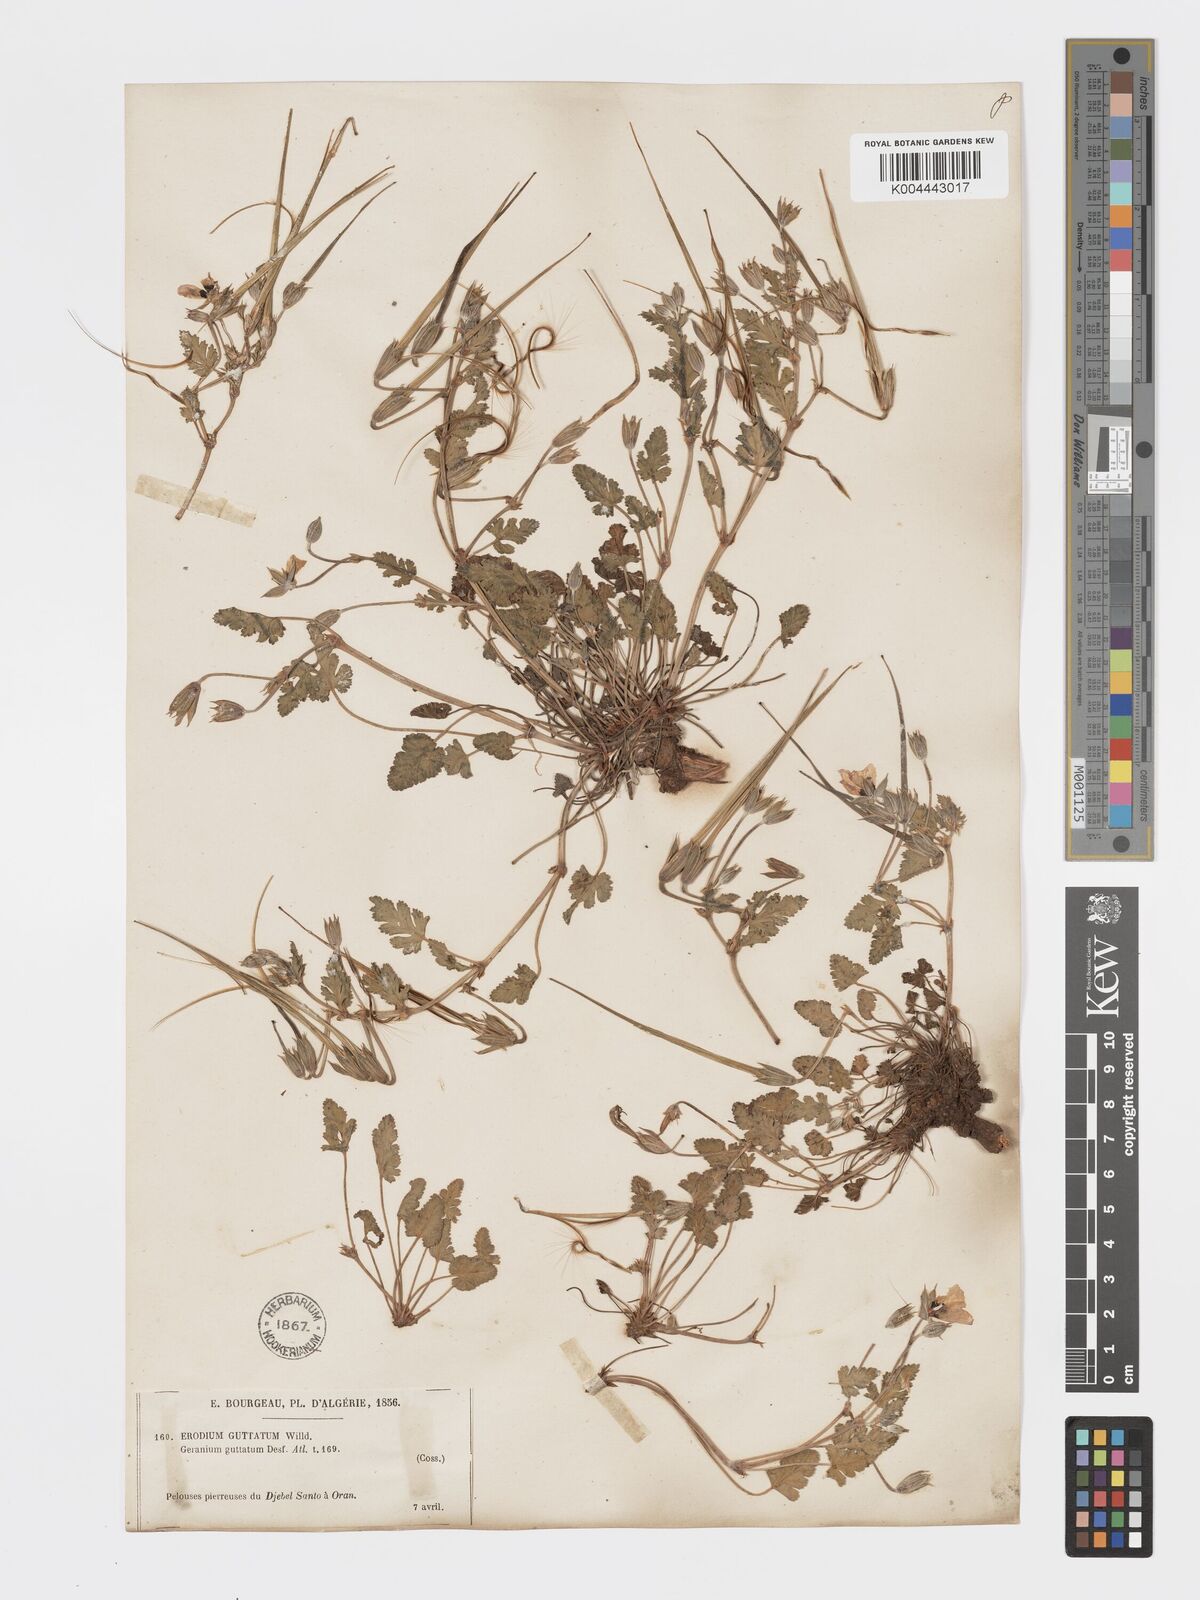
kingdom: Plantae
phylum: Tracheophyta
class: Magnoliopsida
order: Geraniales
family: Geraniaceae
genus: Erodium
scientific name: Erodium guttatum
